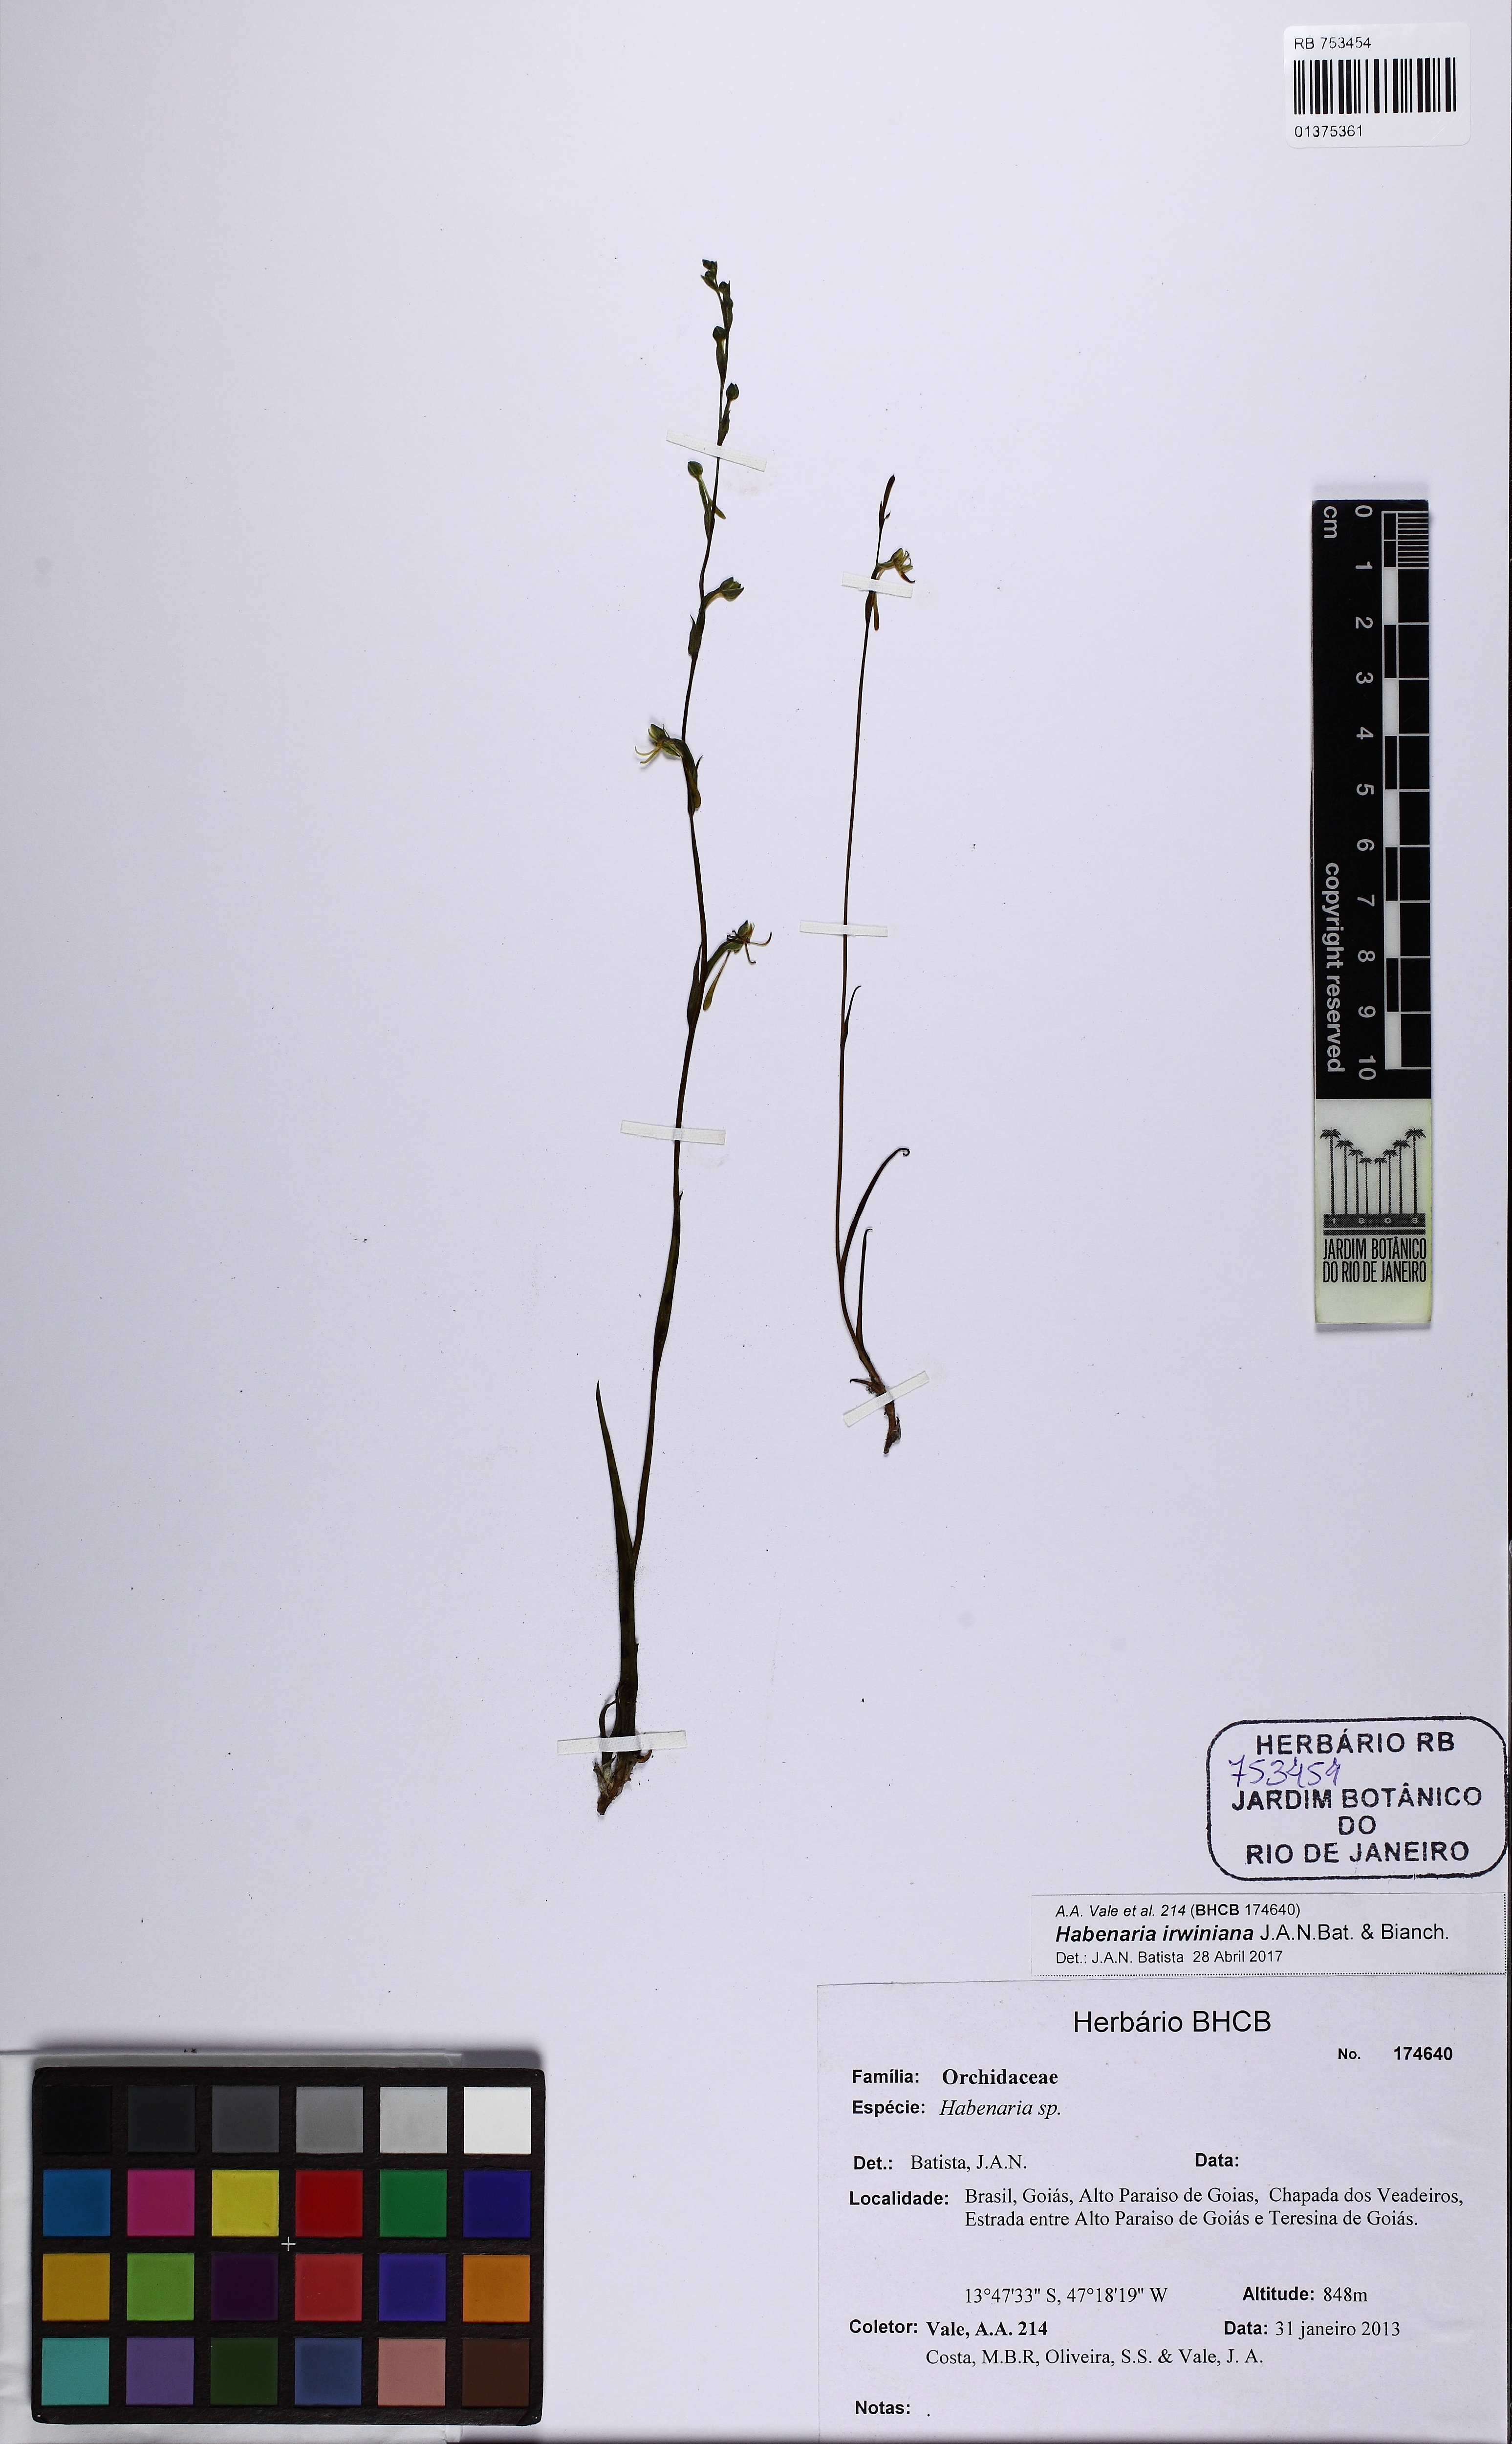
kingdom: Plantae
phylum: Tracheophyta
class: Liliopsida
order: Asparagales
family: Orchidaceae
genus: Habenaria
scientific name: Habenaria irwiniana
